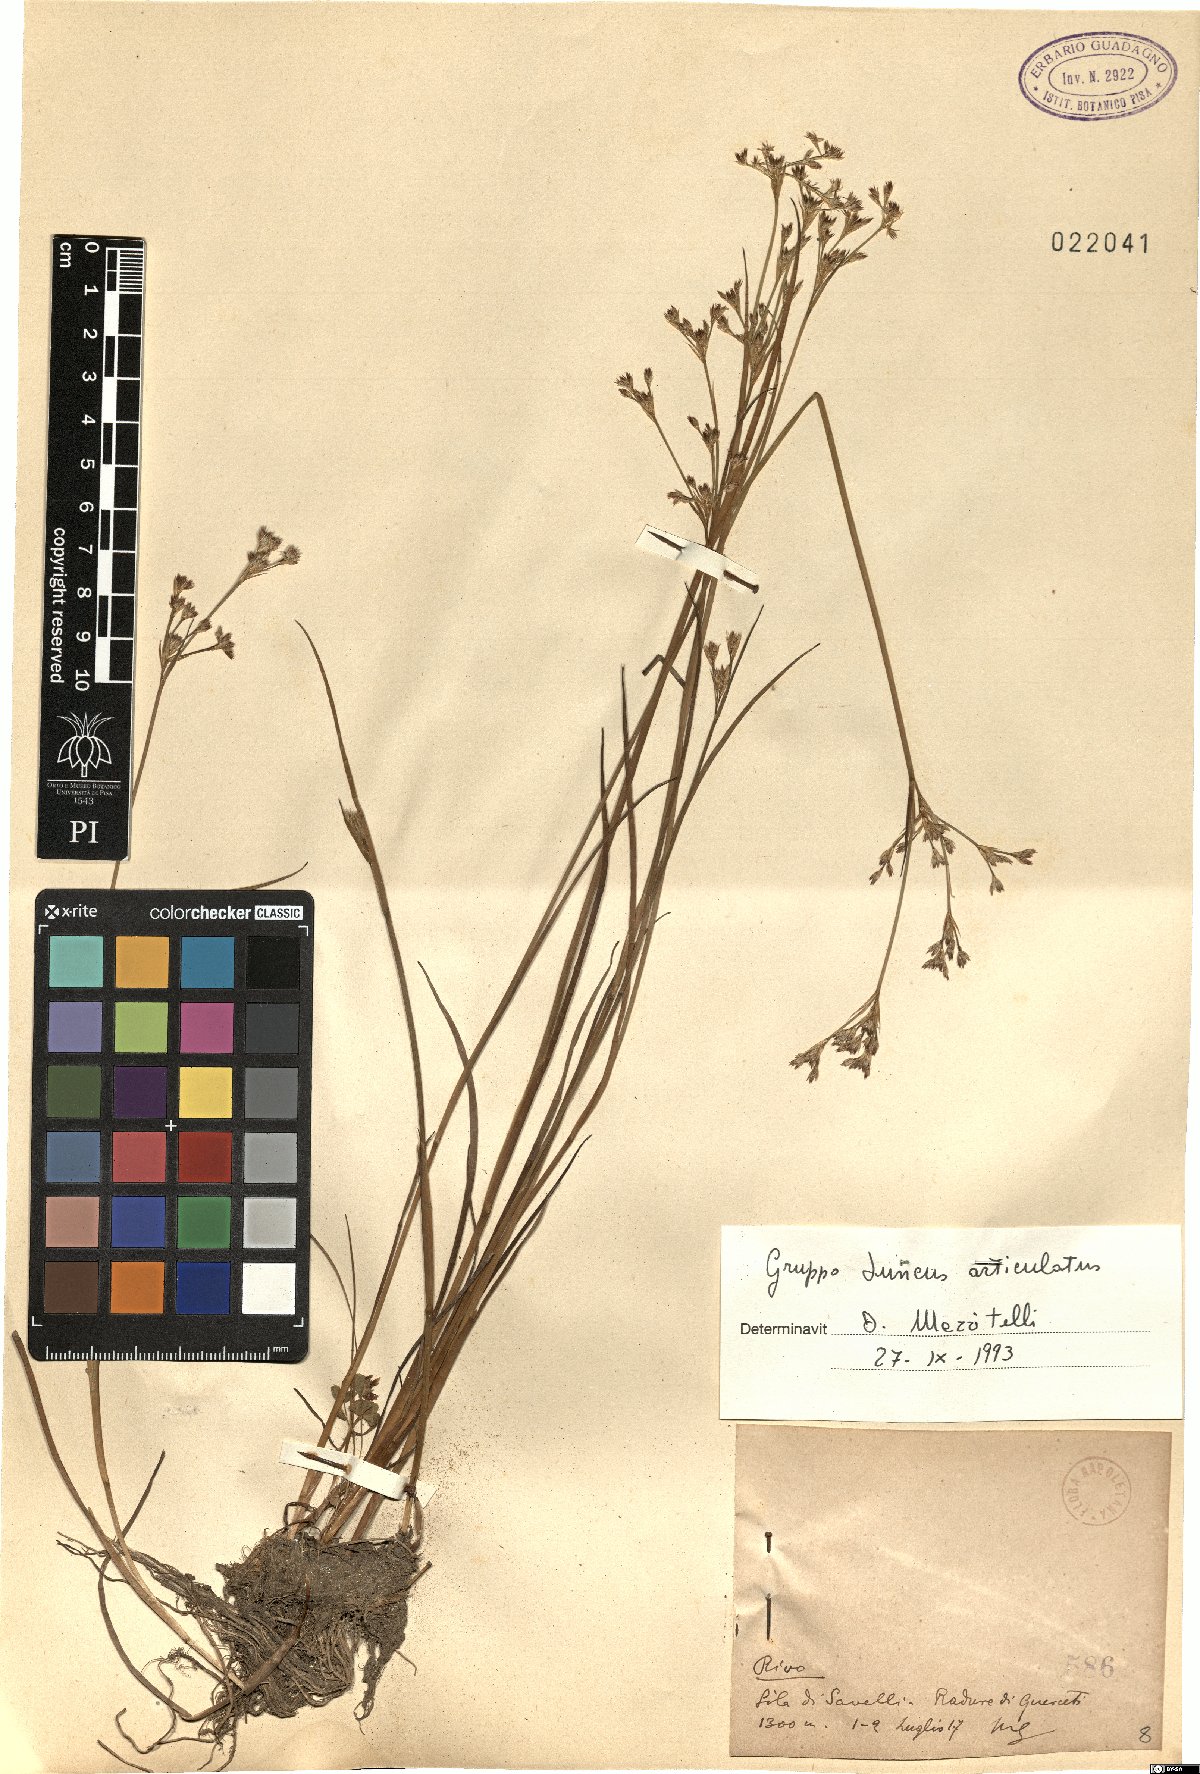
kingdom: Plantae
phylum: Tracheophyta
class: Liliopsida
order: Poales
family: Juncaceae
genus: Juncus
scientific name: Juncus articulatus
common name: Jointed rush
